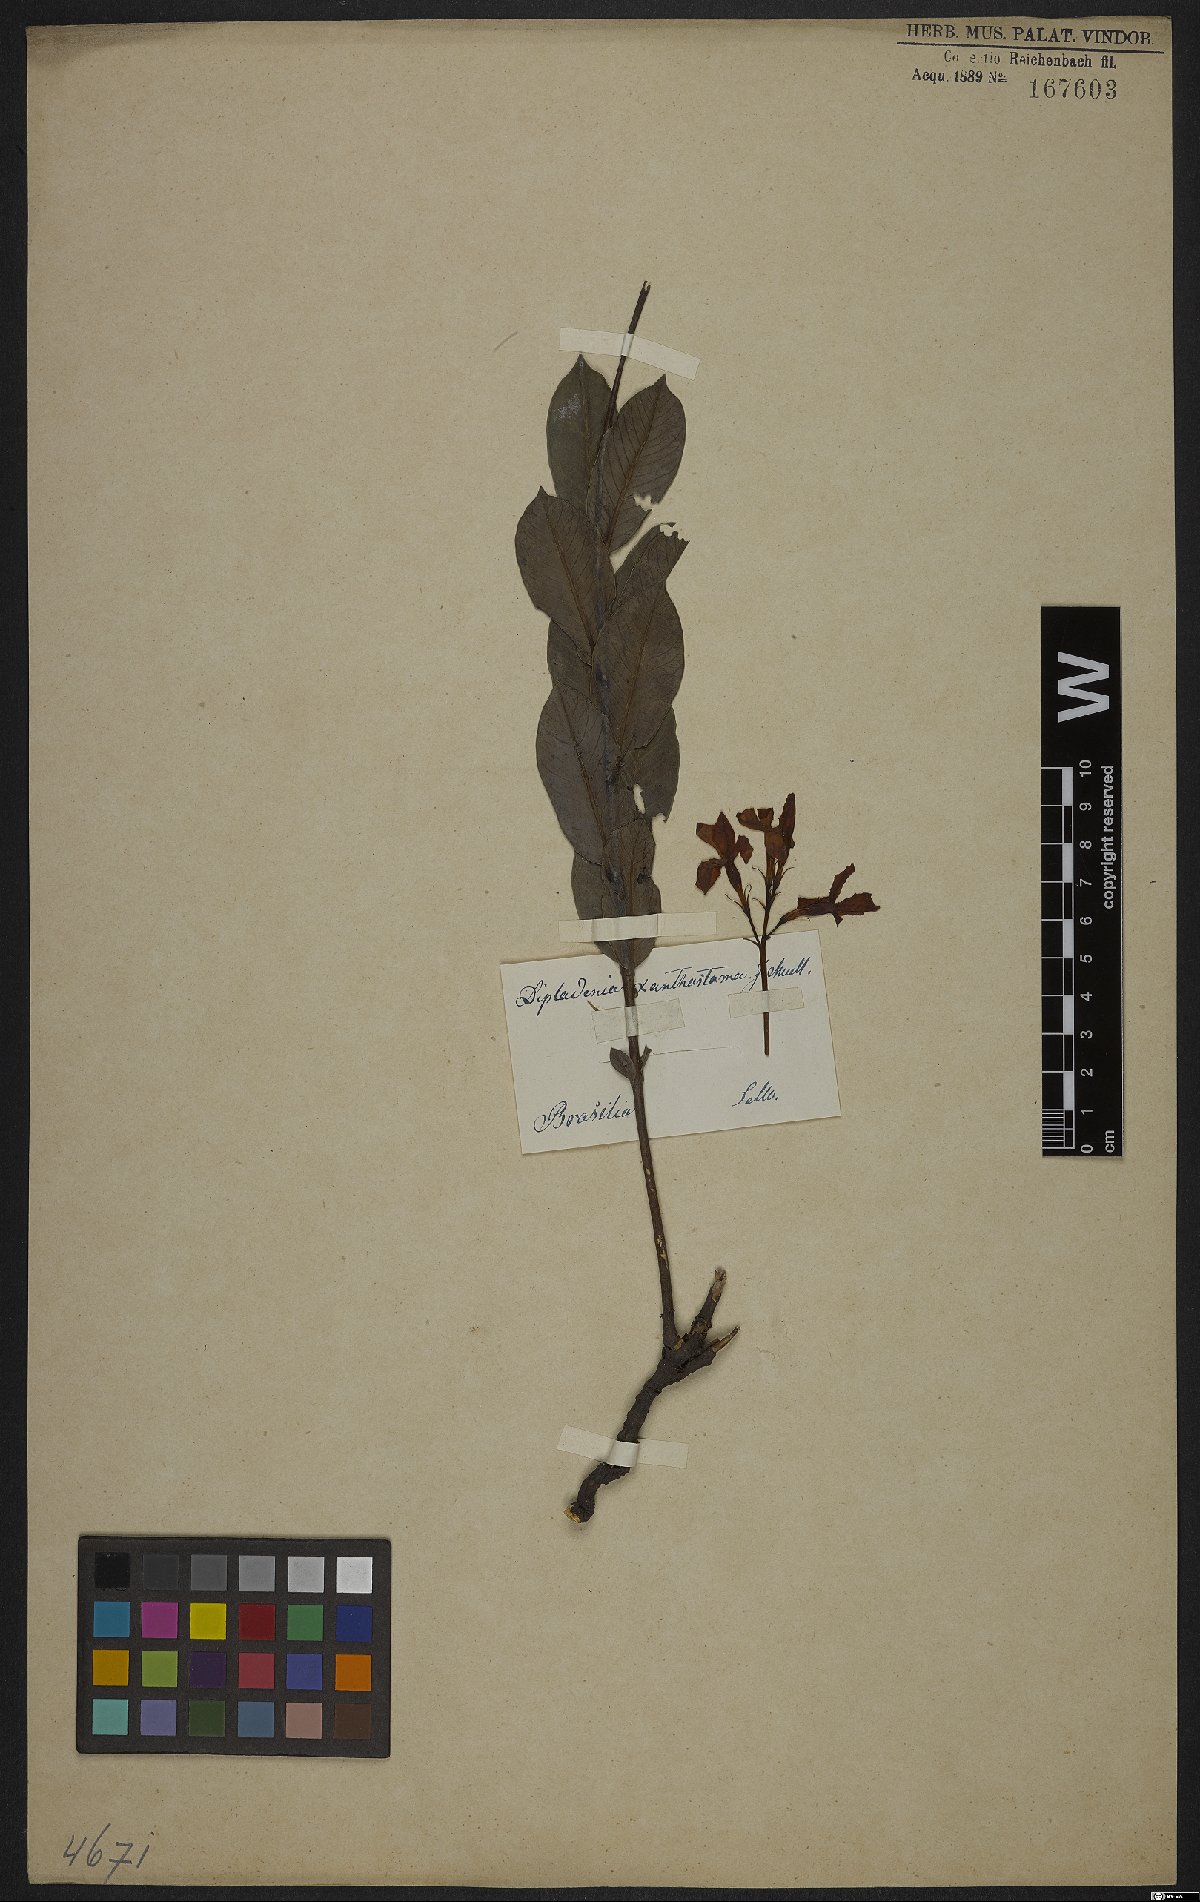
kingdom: Plantae
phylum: Tracheophyta
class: Magnoliopsida
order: Gentianales
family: Apocynaceae
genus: Mandevilla
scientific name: Mandevilla coccinea
